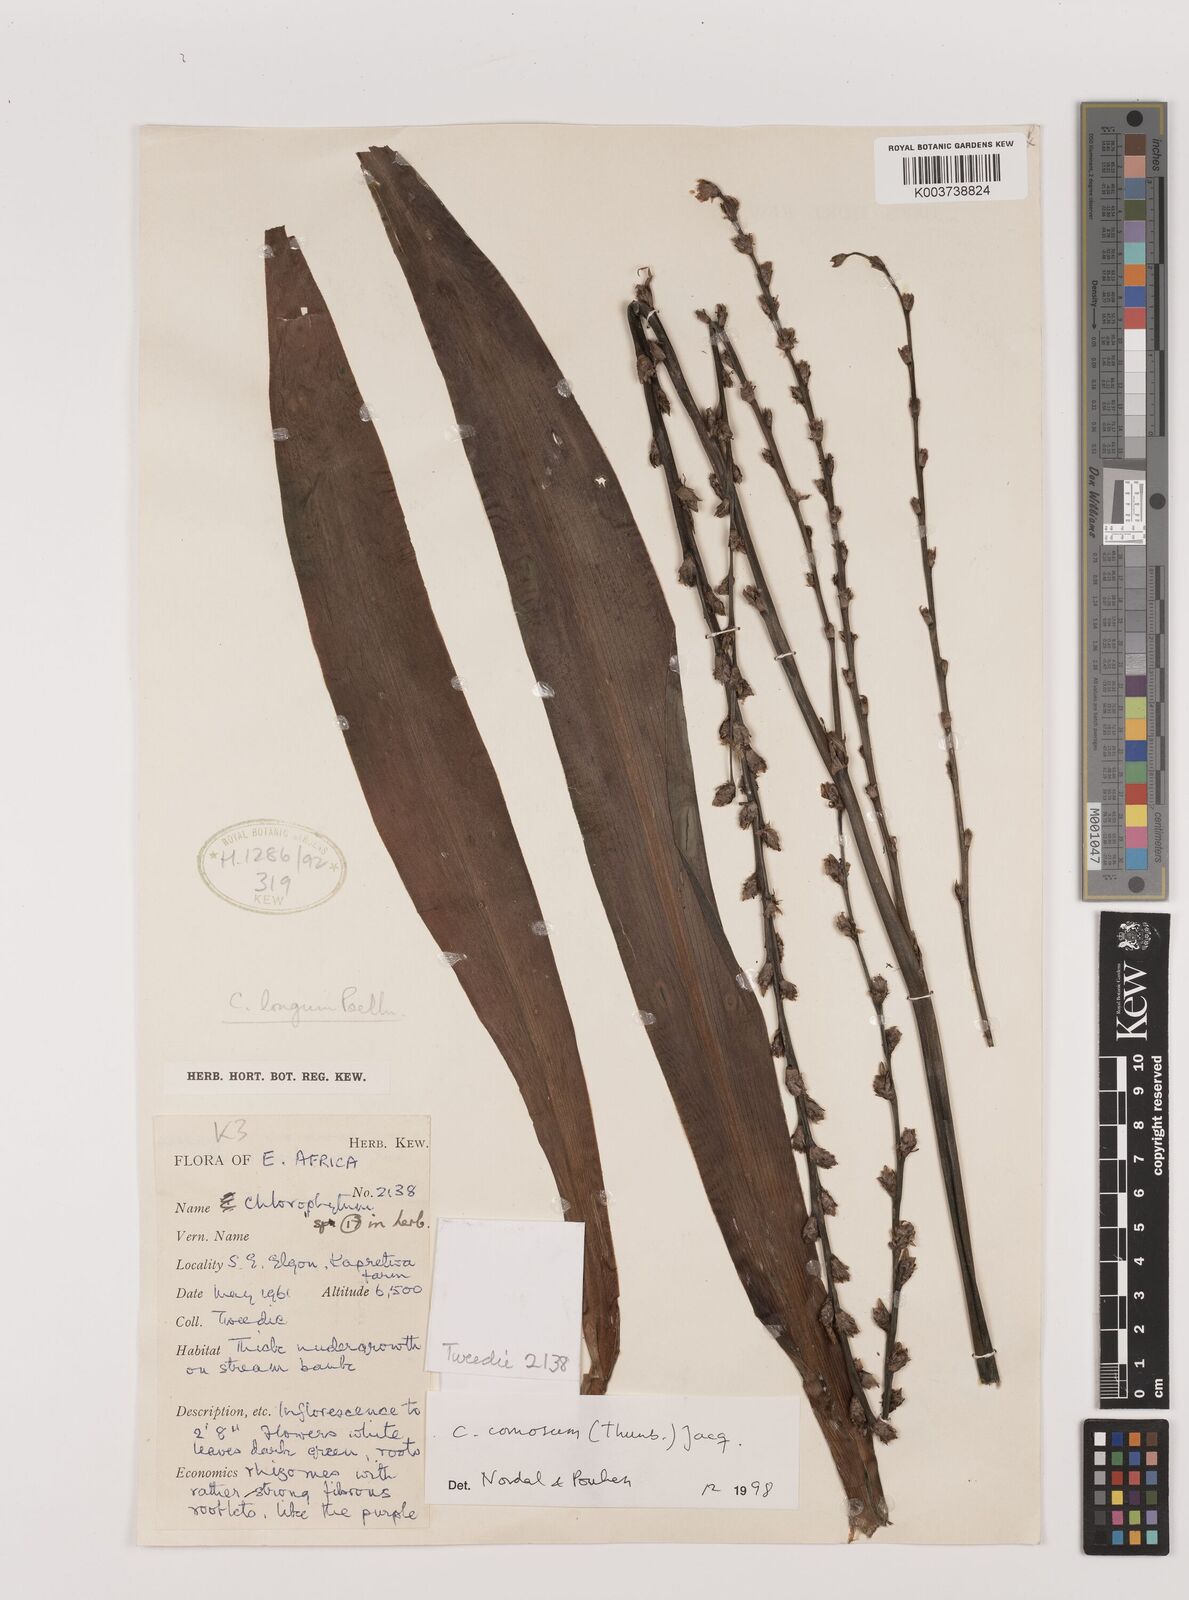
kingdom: Plantae
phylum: Tracheophyta
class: Liliopsida
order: Asparagales
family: Asparagaceae
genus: Chlorophytum
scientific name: Chlorophytum comosum
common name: Spider plant
